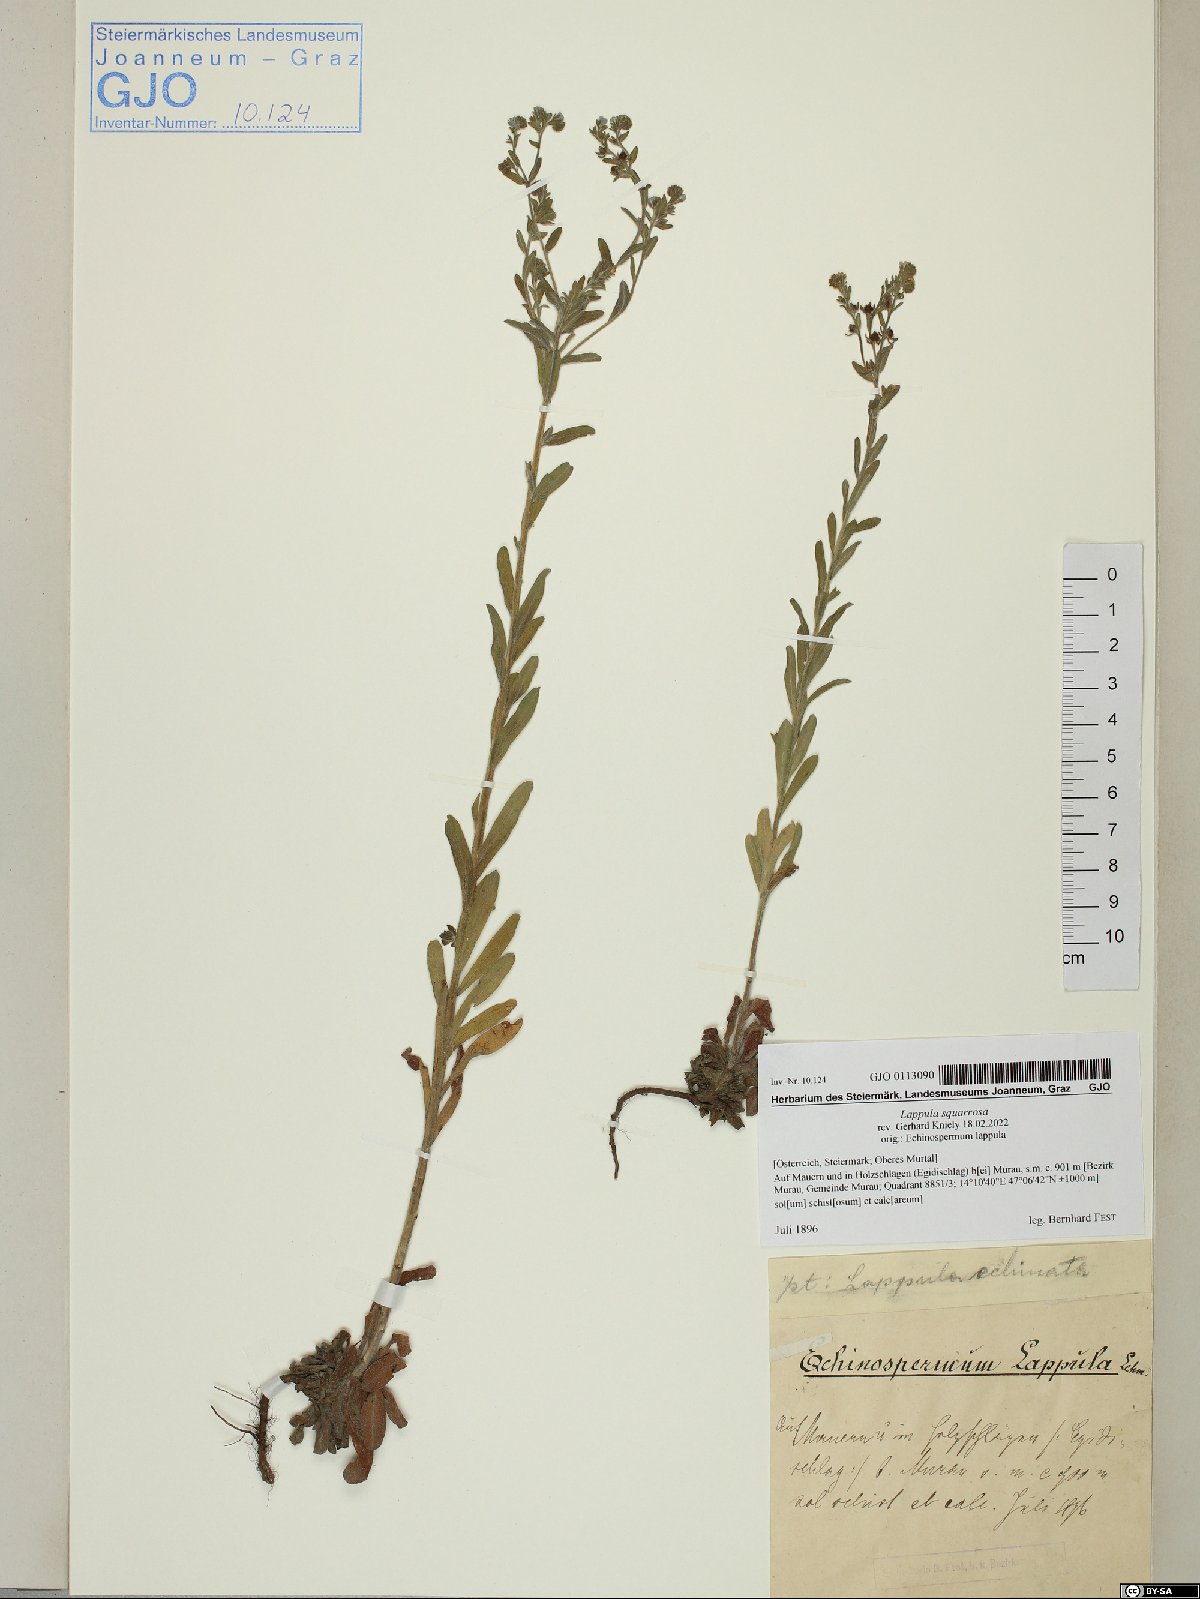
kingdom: Plantae
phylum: Tracheophyta
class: Magnoliopsida
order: Boraginales
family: Boraginaceae
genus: Lappula
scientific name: Lappula squarrosa
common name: European stickseed
